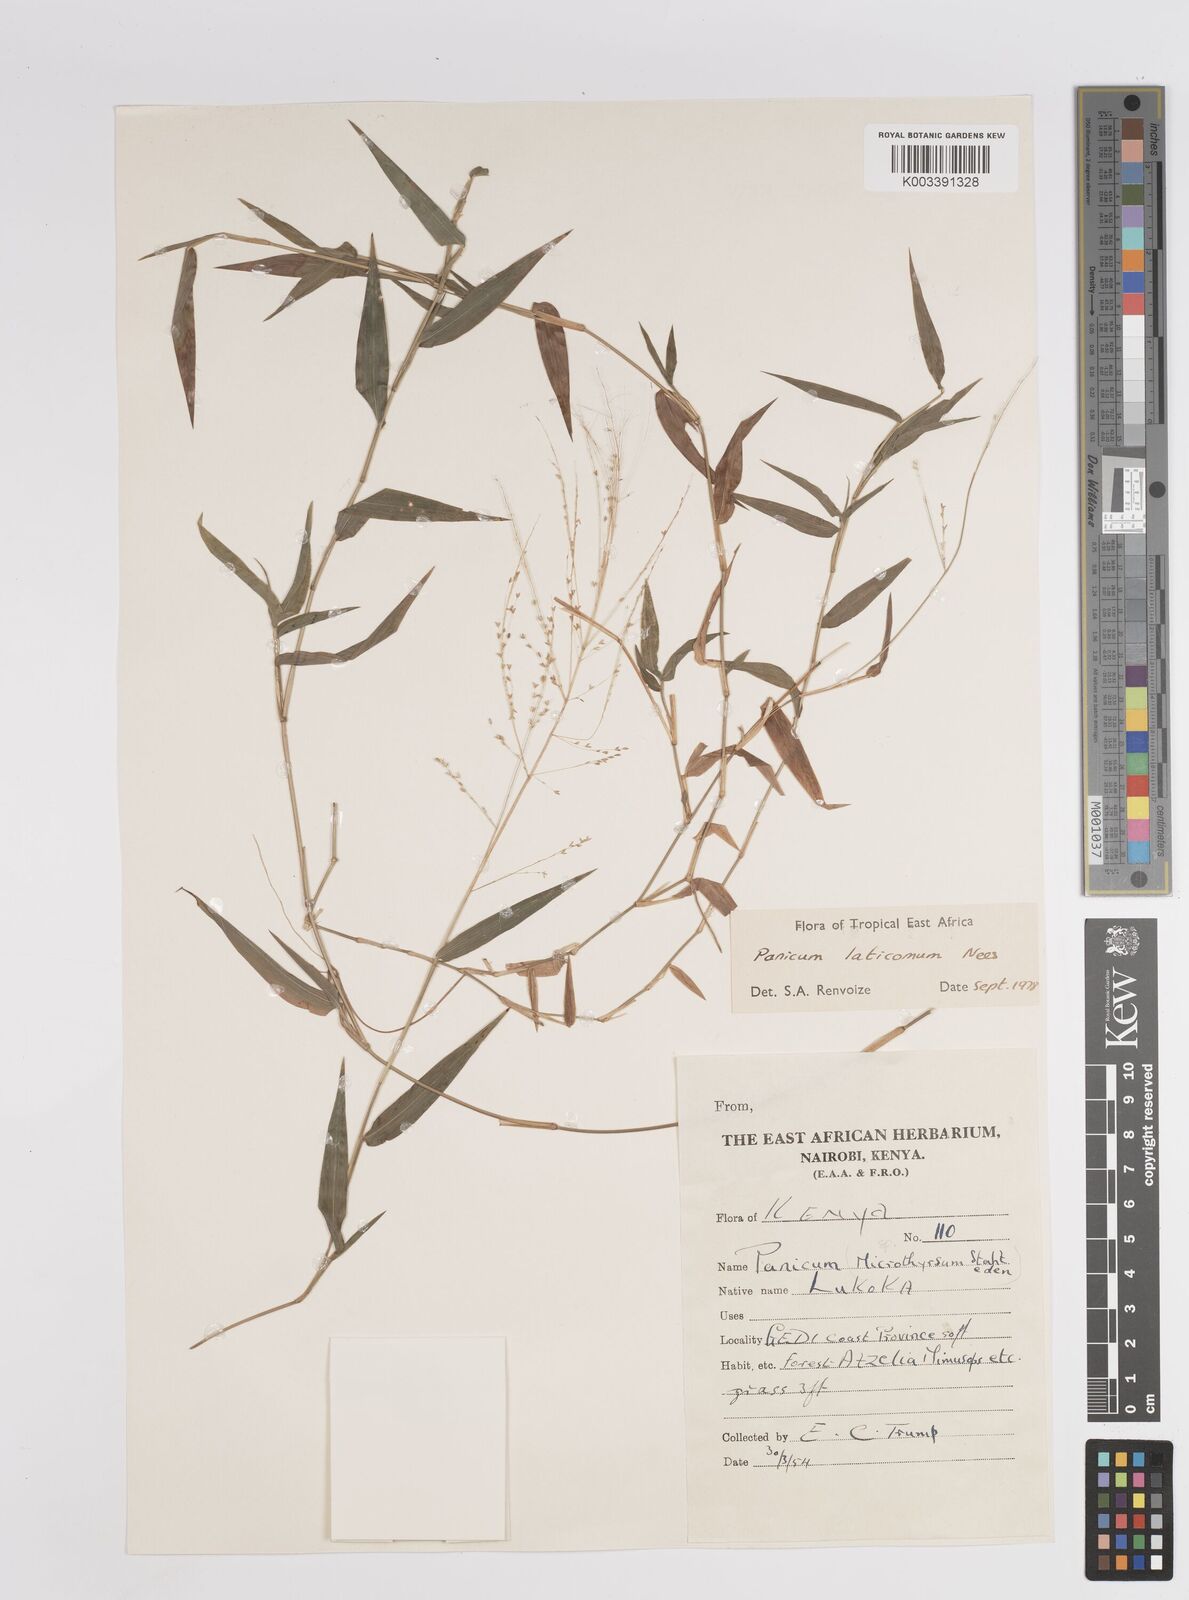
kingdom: Plantae
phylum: Tracheophyta
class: Liliopsida
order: Poales
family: Poaceae
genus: Panicum
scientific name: Panicum laticomum
